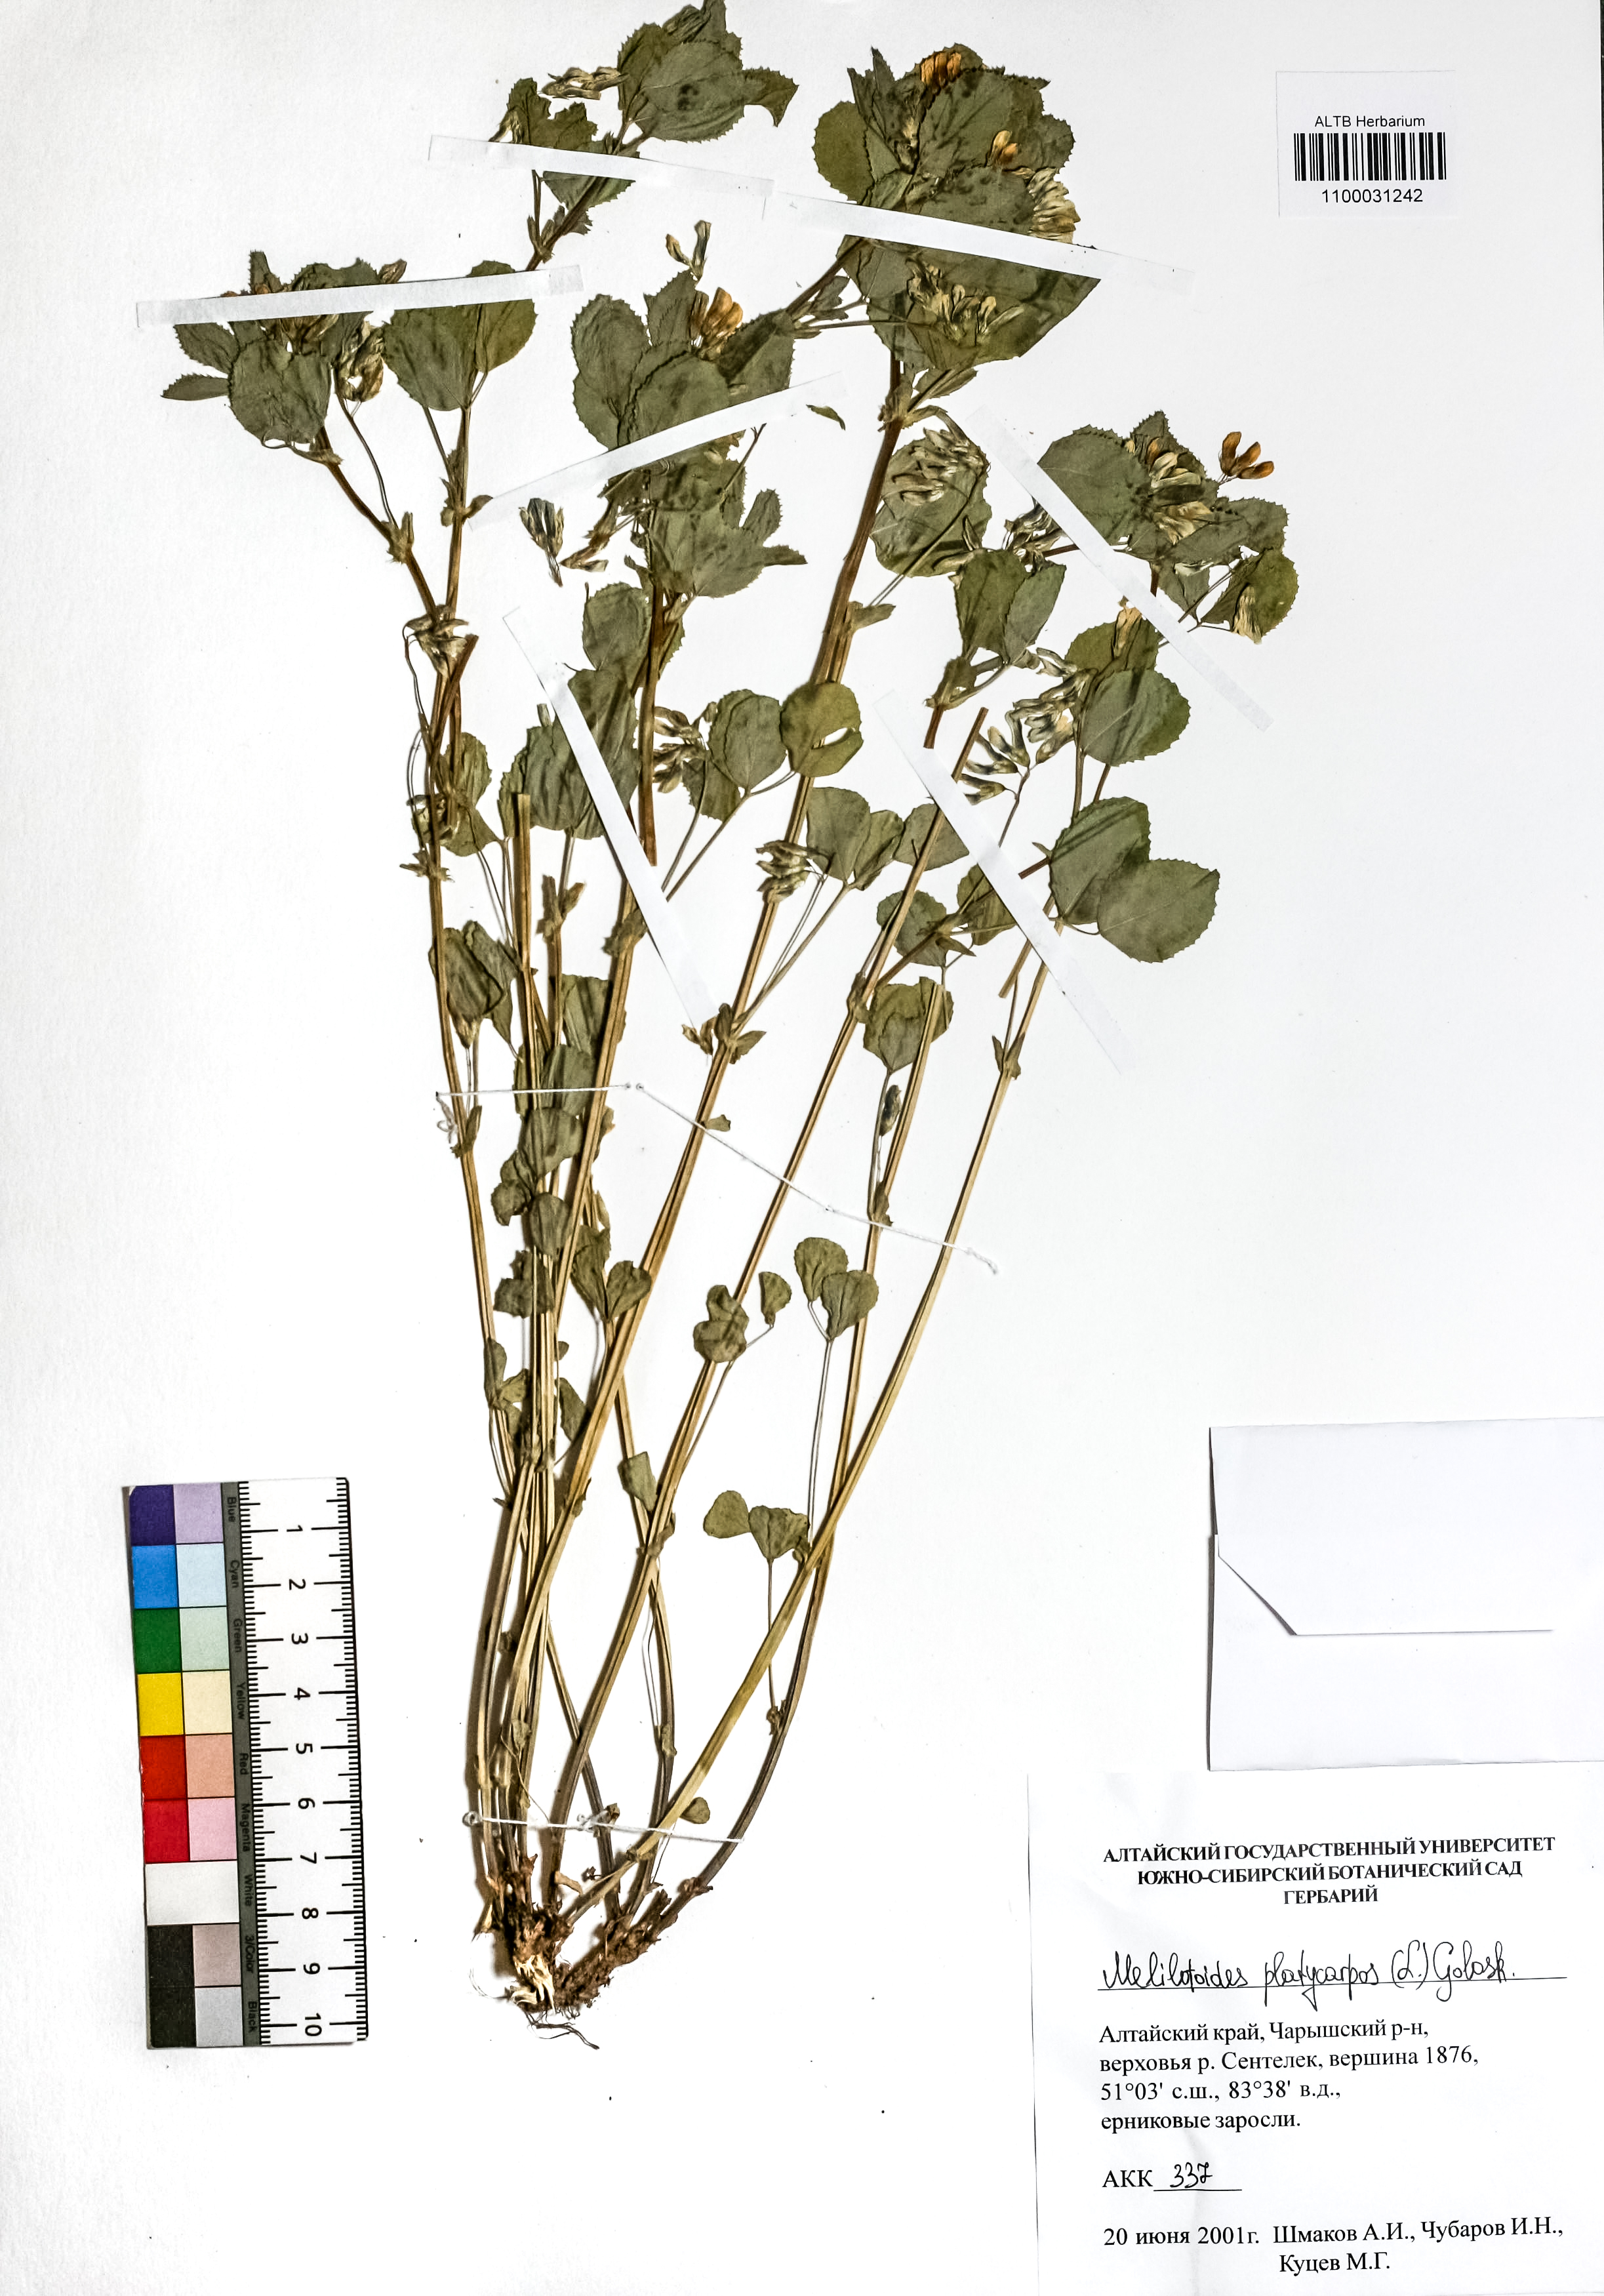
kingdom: Plantae
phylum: Tracheophyta
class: Magnoliopsida
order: Fabales
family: Fabaceae
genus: Medicago
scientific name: Medicago platycarpos
